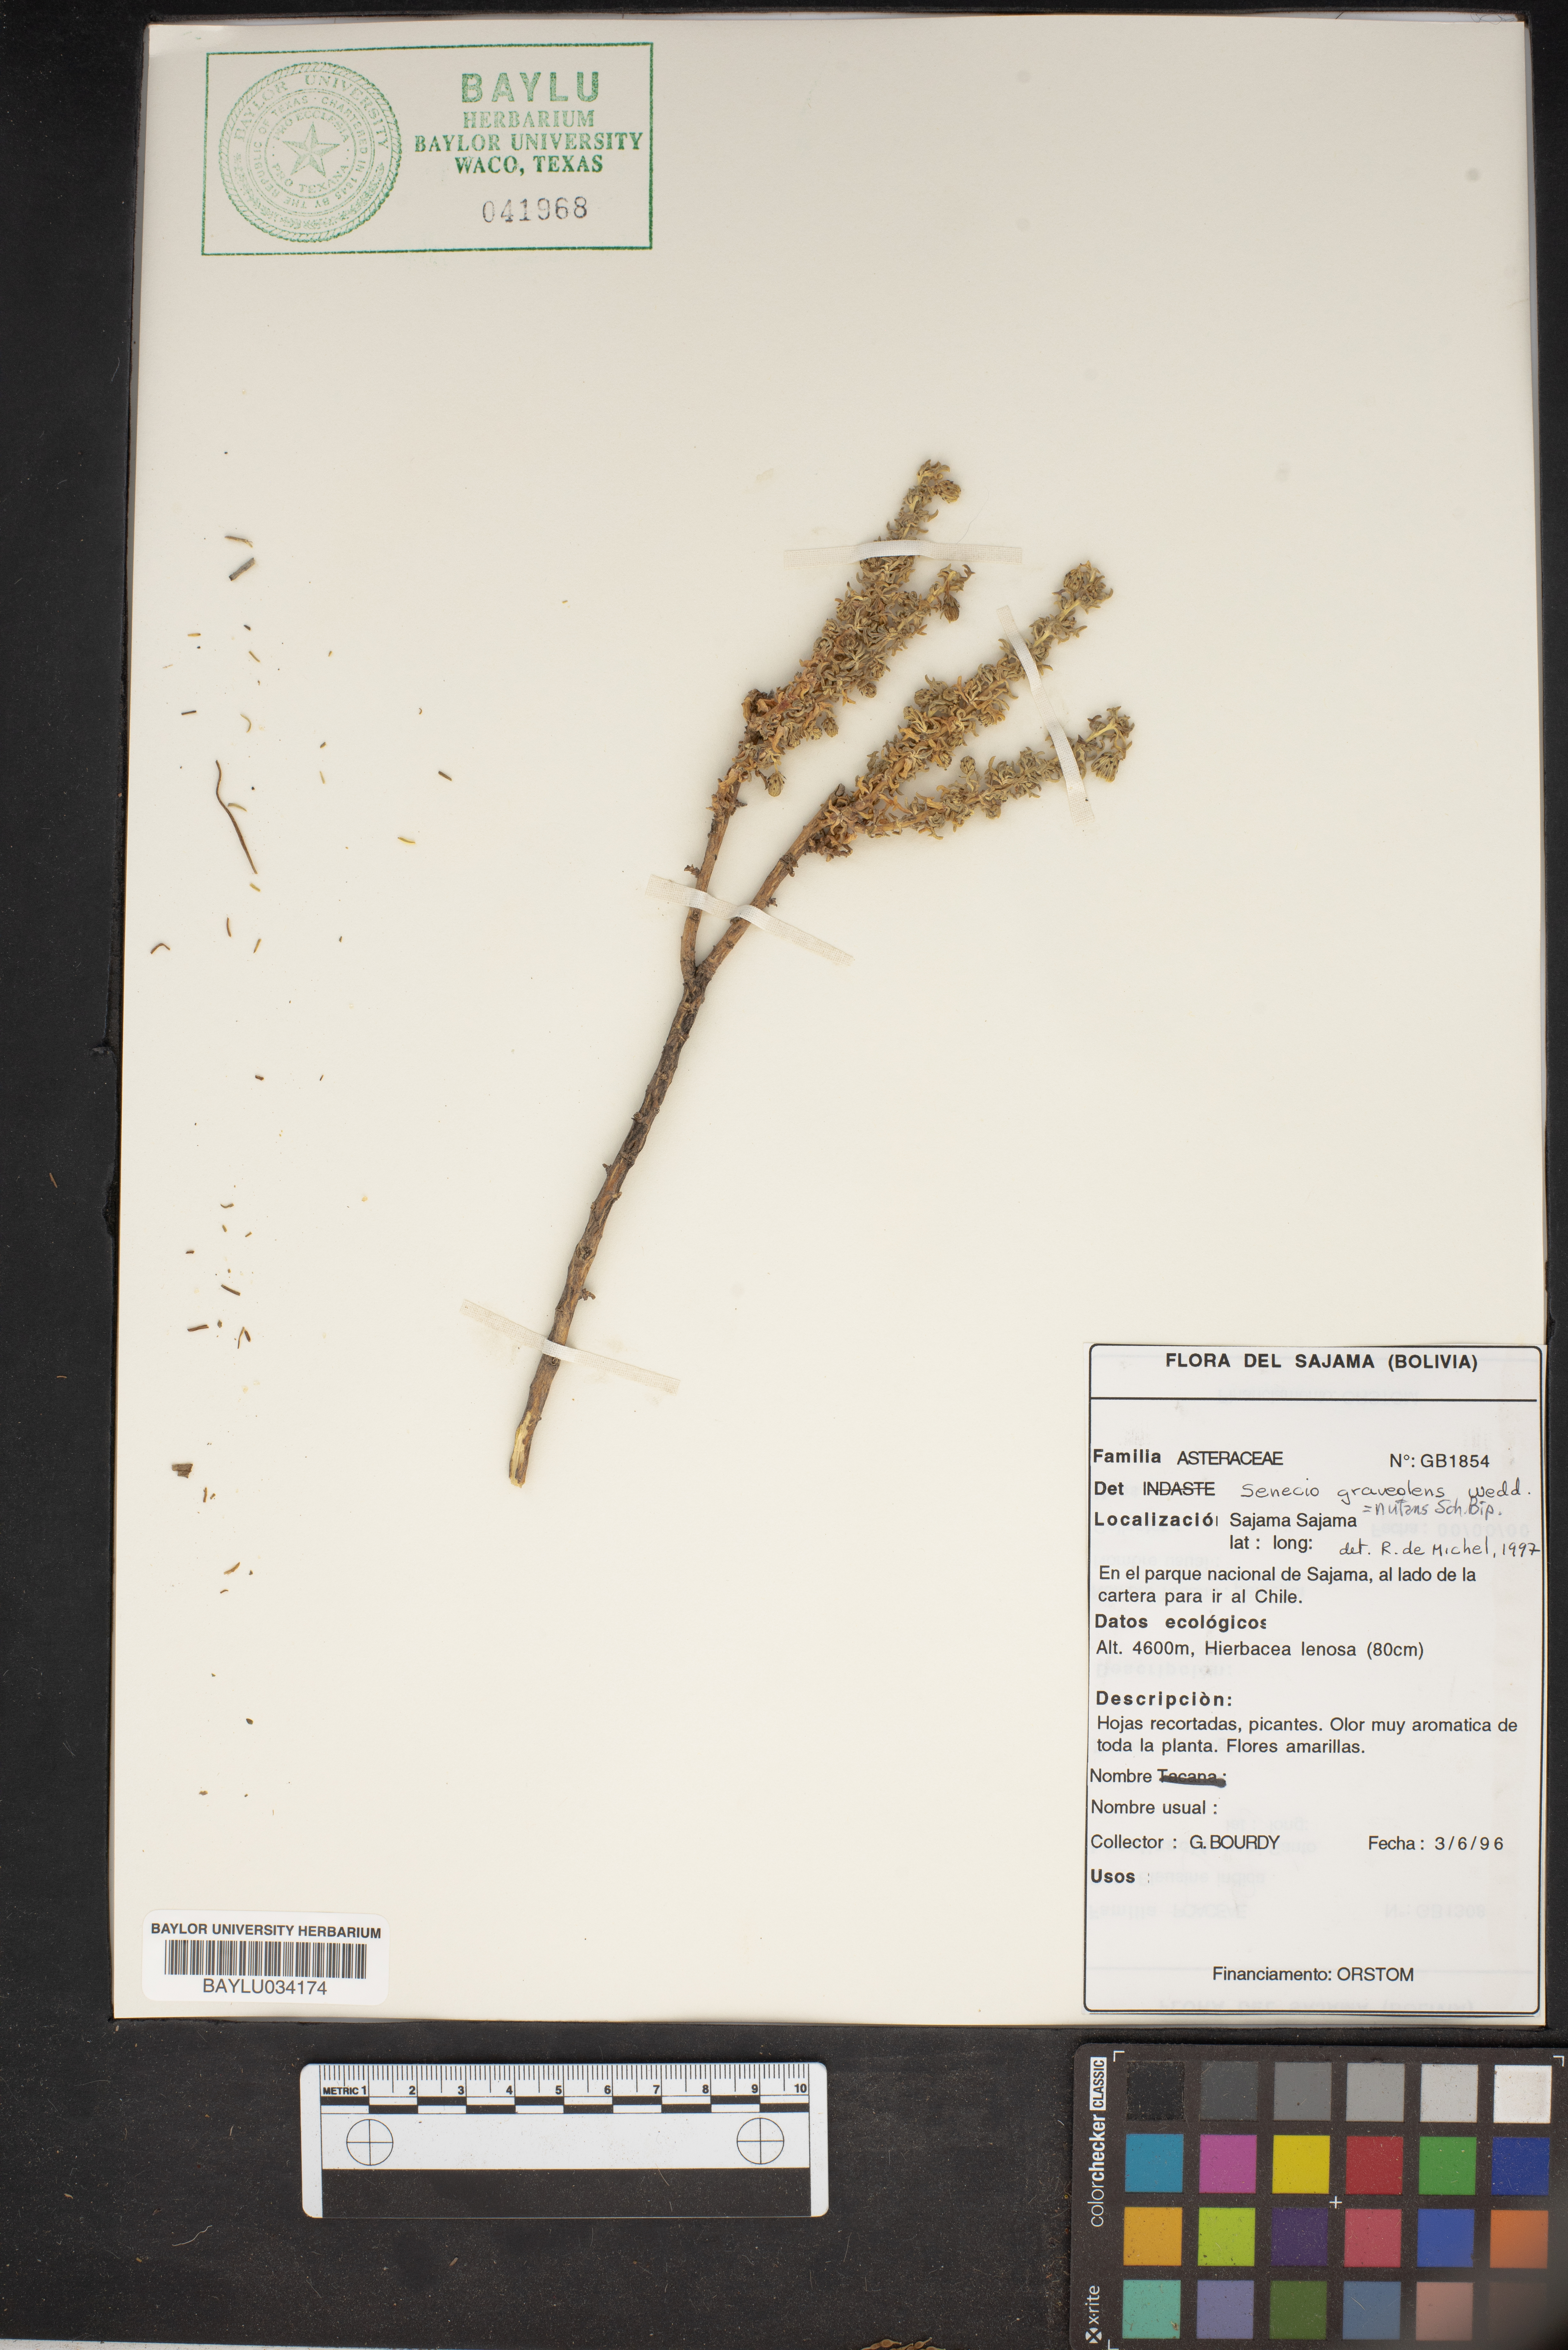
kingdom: Plantae
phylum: Tracheophyta
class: Magnoliopsida
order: Asterales
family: Asteraceae
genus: Senecio
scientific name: Senecio nutans
